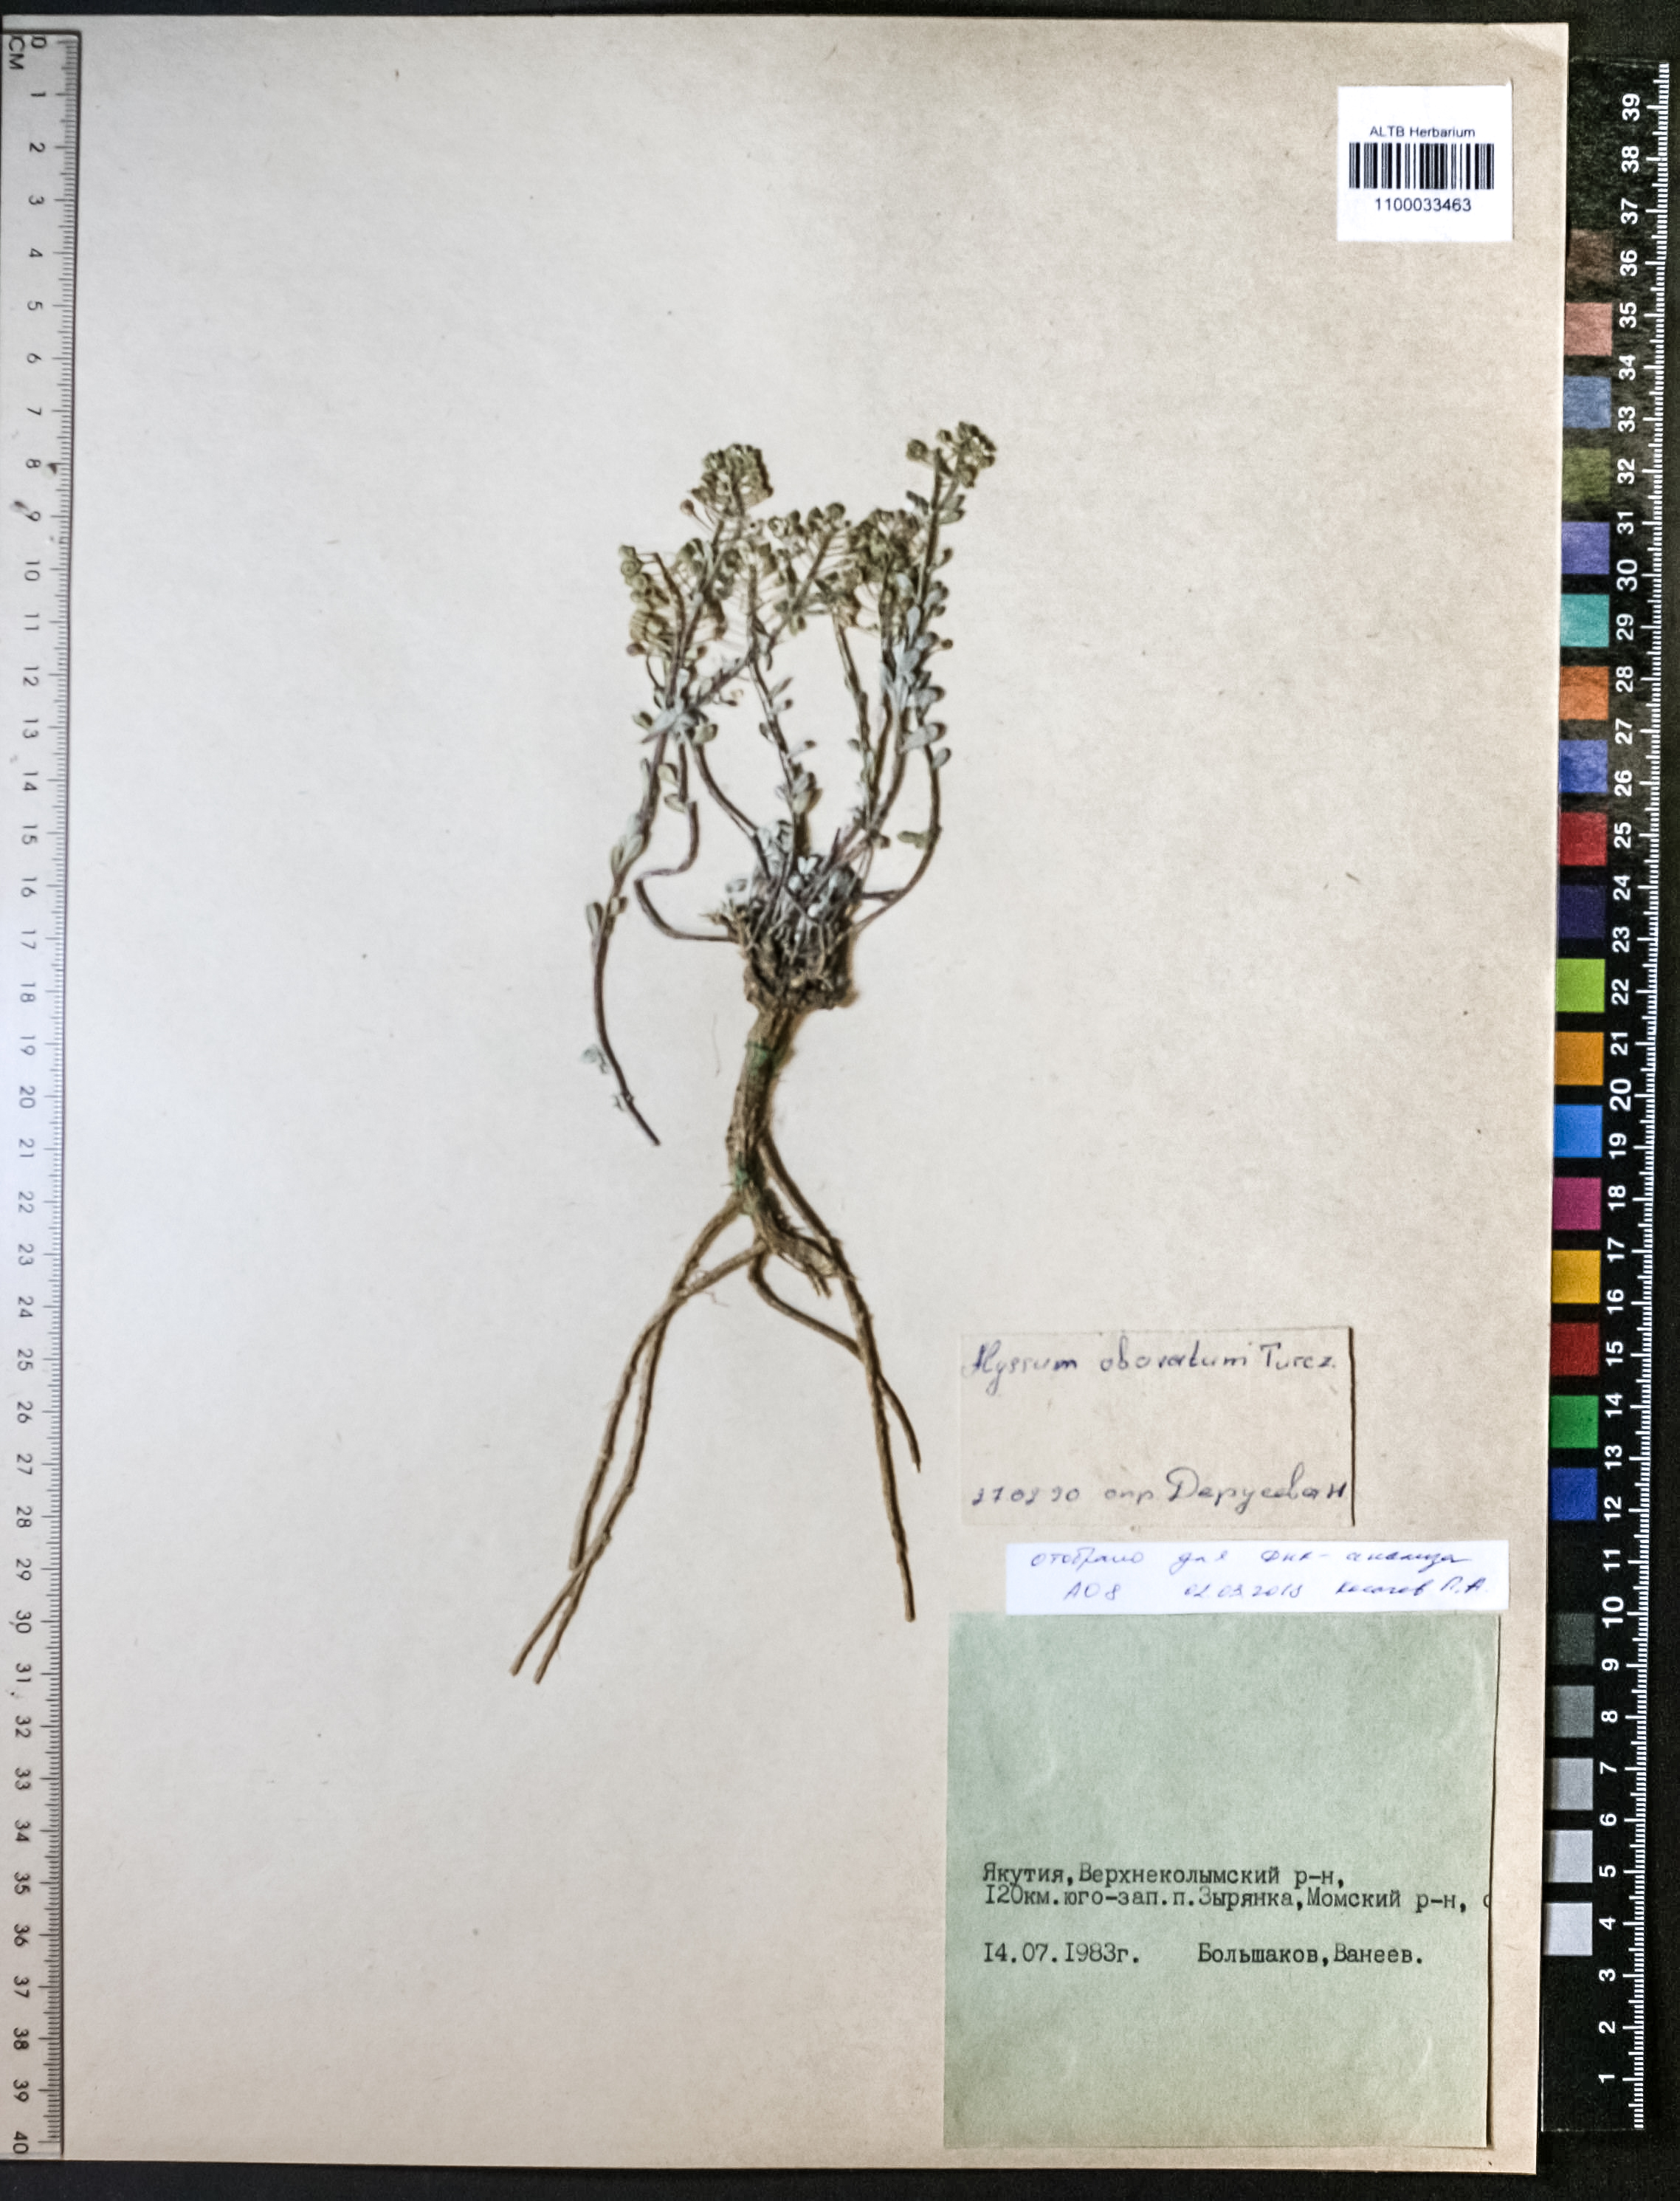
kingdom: Plantae
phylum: Tracheophyta
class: Magnoliopsida
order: Brassicales
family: Brassicaceae
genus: Odontarrhena
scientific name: Odontarrhena obovata
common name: American alyssum
